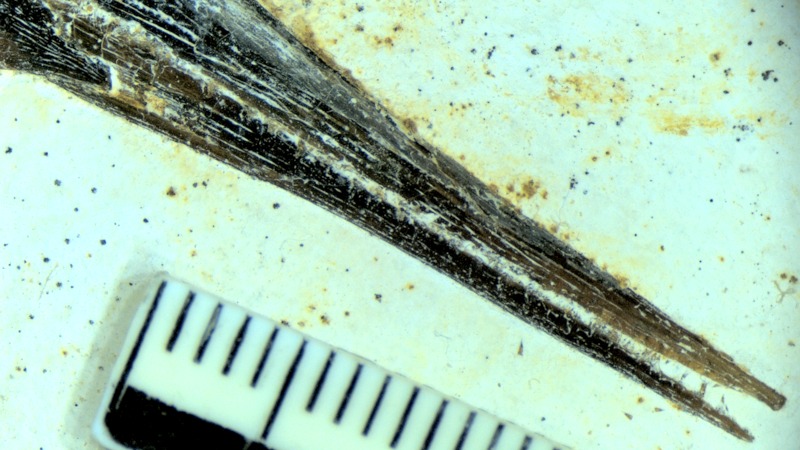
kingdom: Animalia
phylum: Chordata
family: Aspidorhynchidae
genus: Belonostomus
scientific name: Belonostomus kochii
